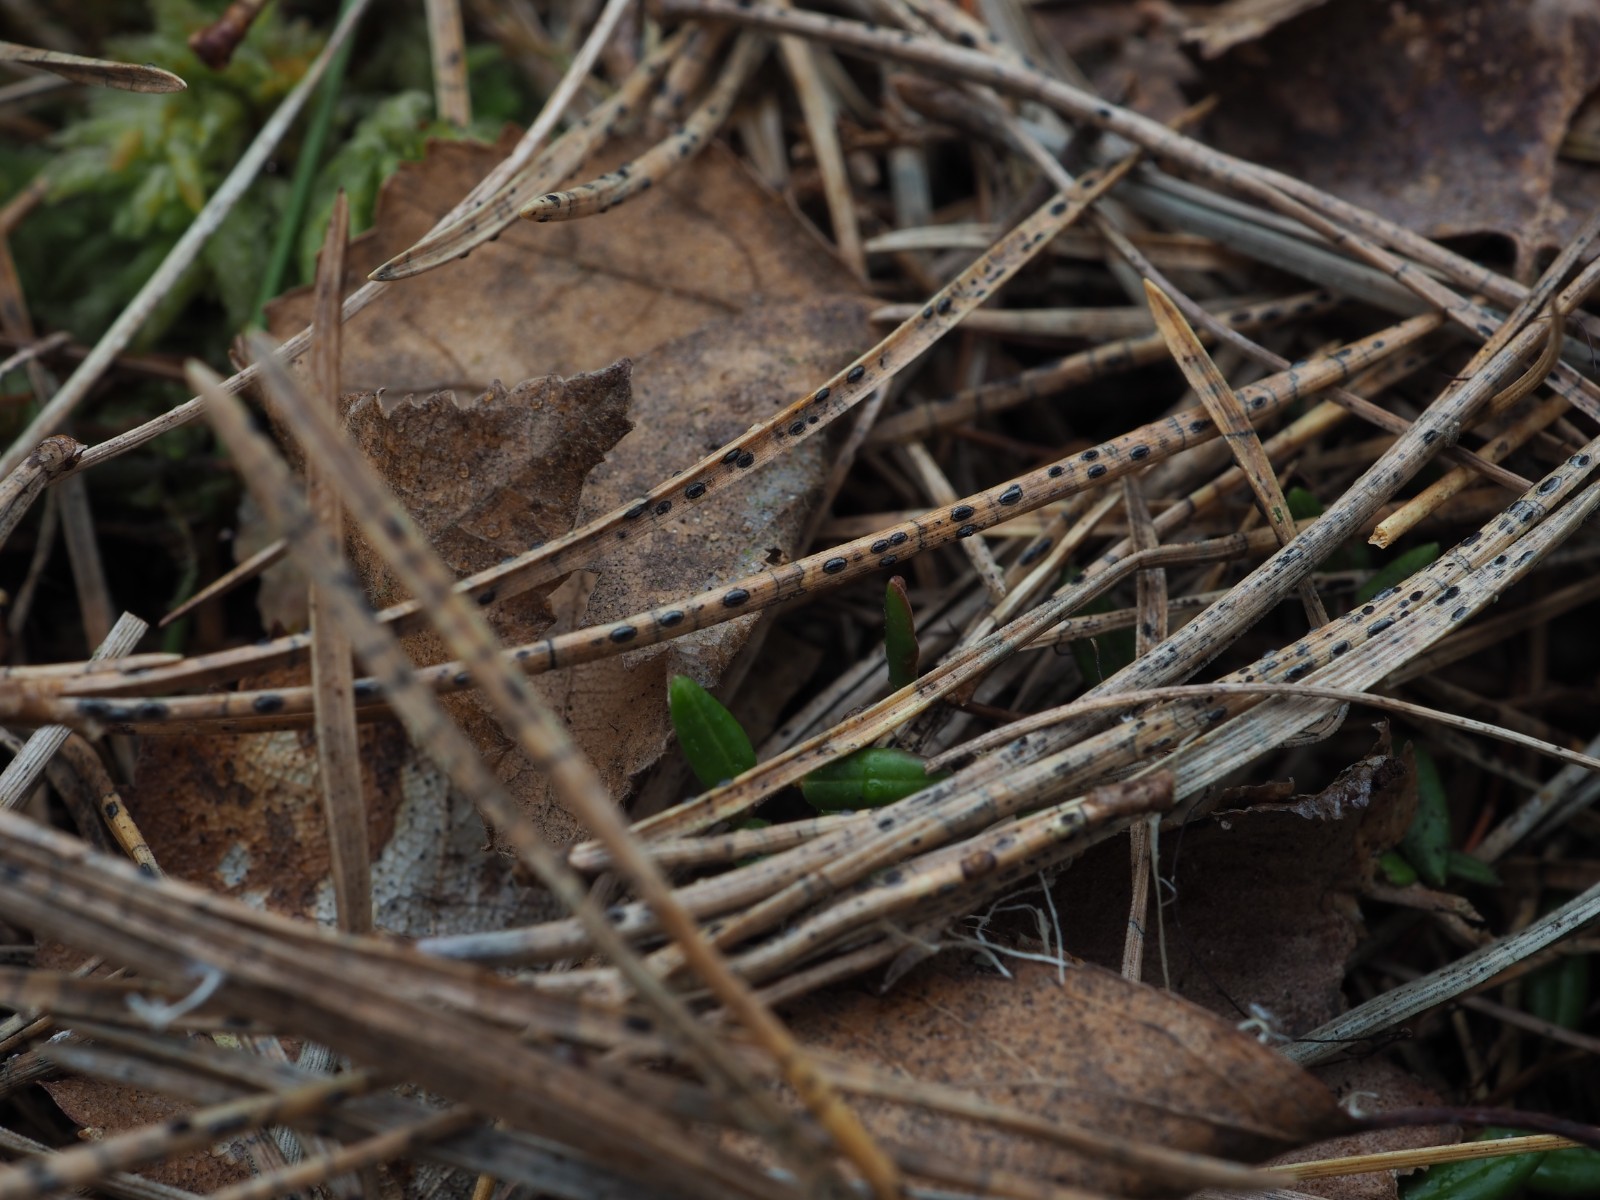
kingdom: Fungi
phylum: Ascomycota
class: Leotiomycetes
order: Rhytismatales
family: Rhytismataceae
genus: Lophodermium
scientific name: Lophodermium pinastri
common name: fyrre-fureplet
